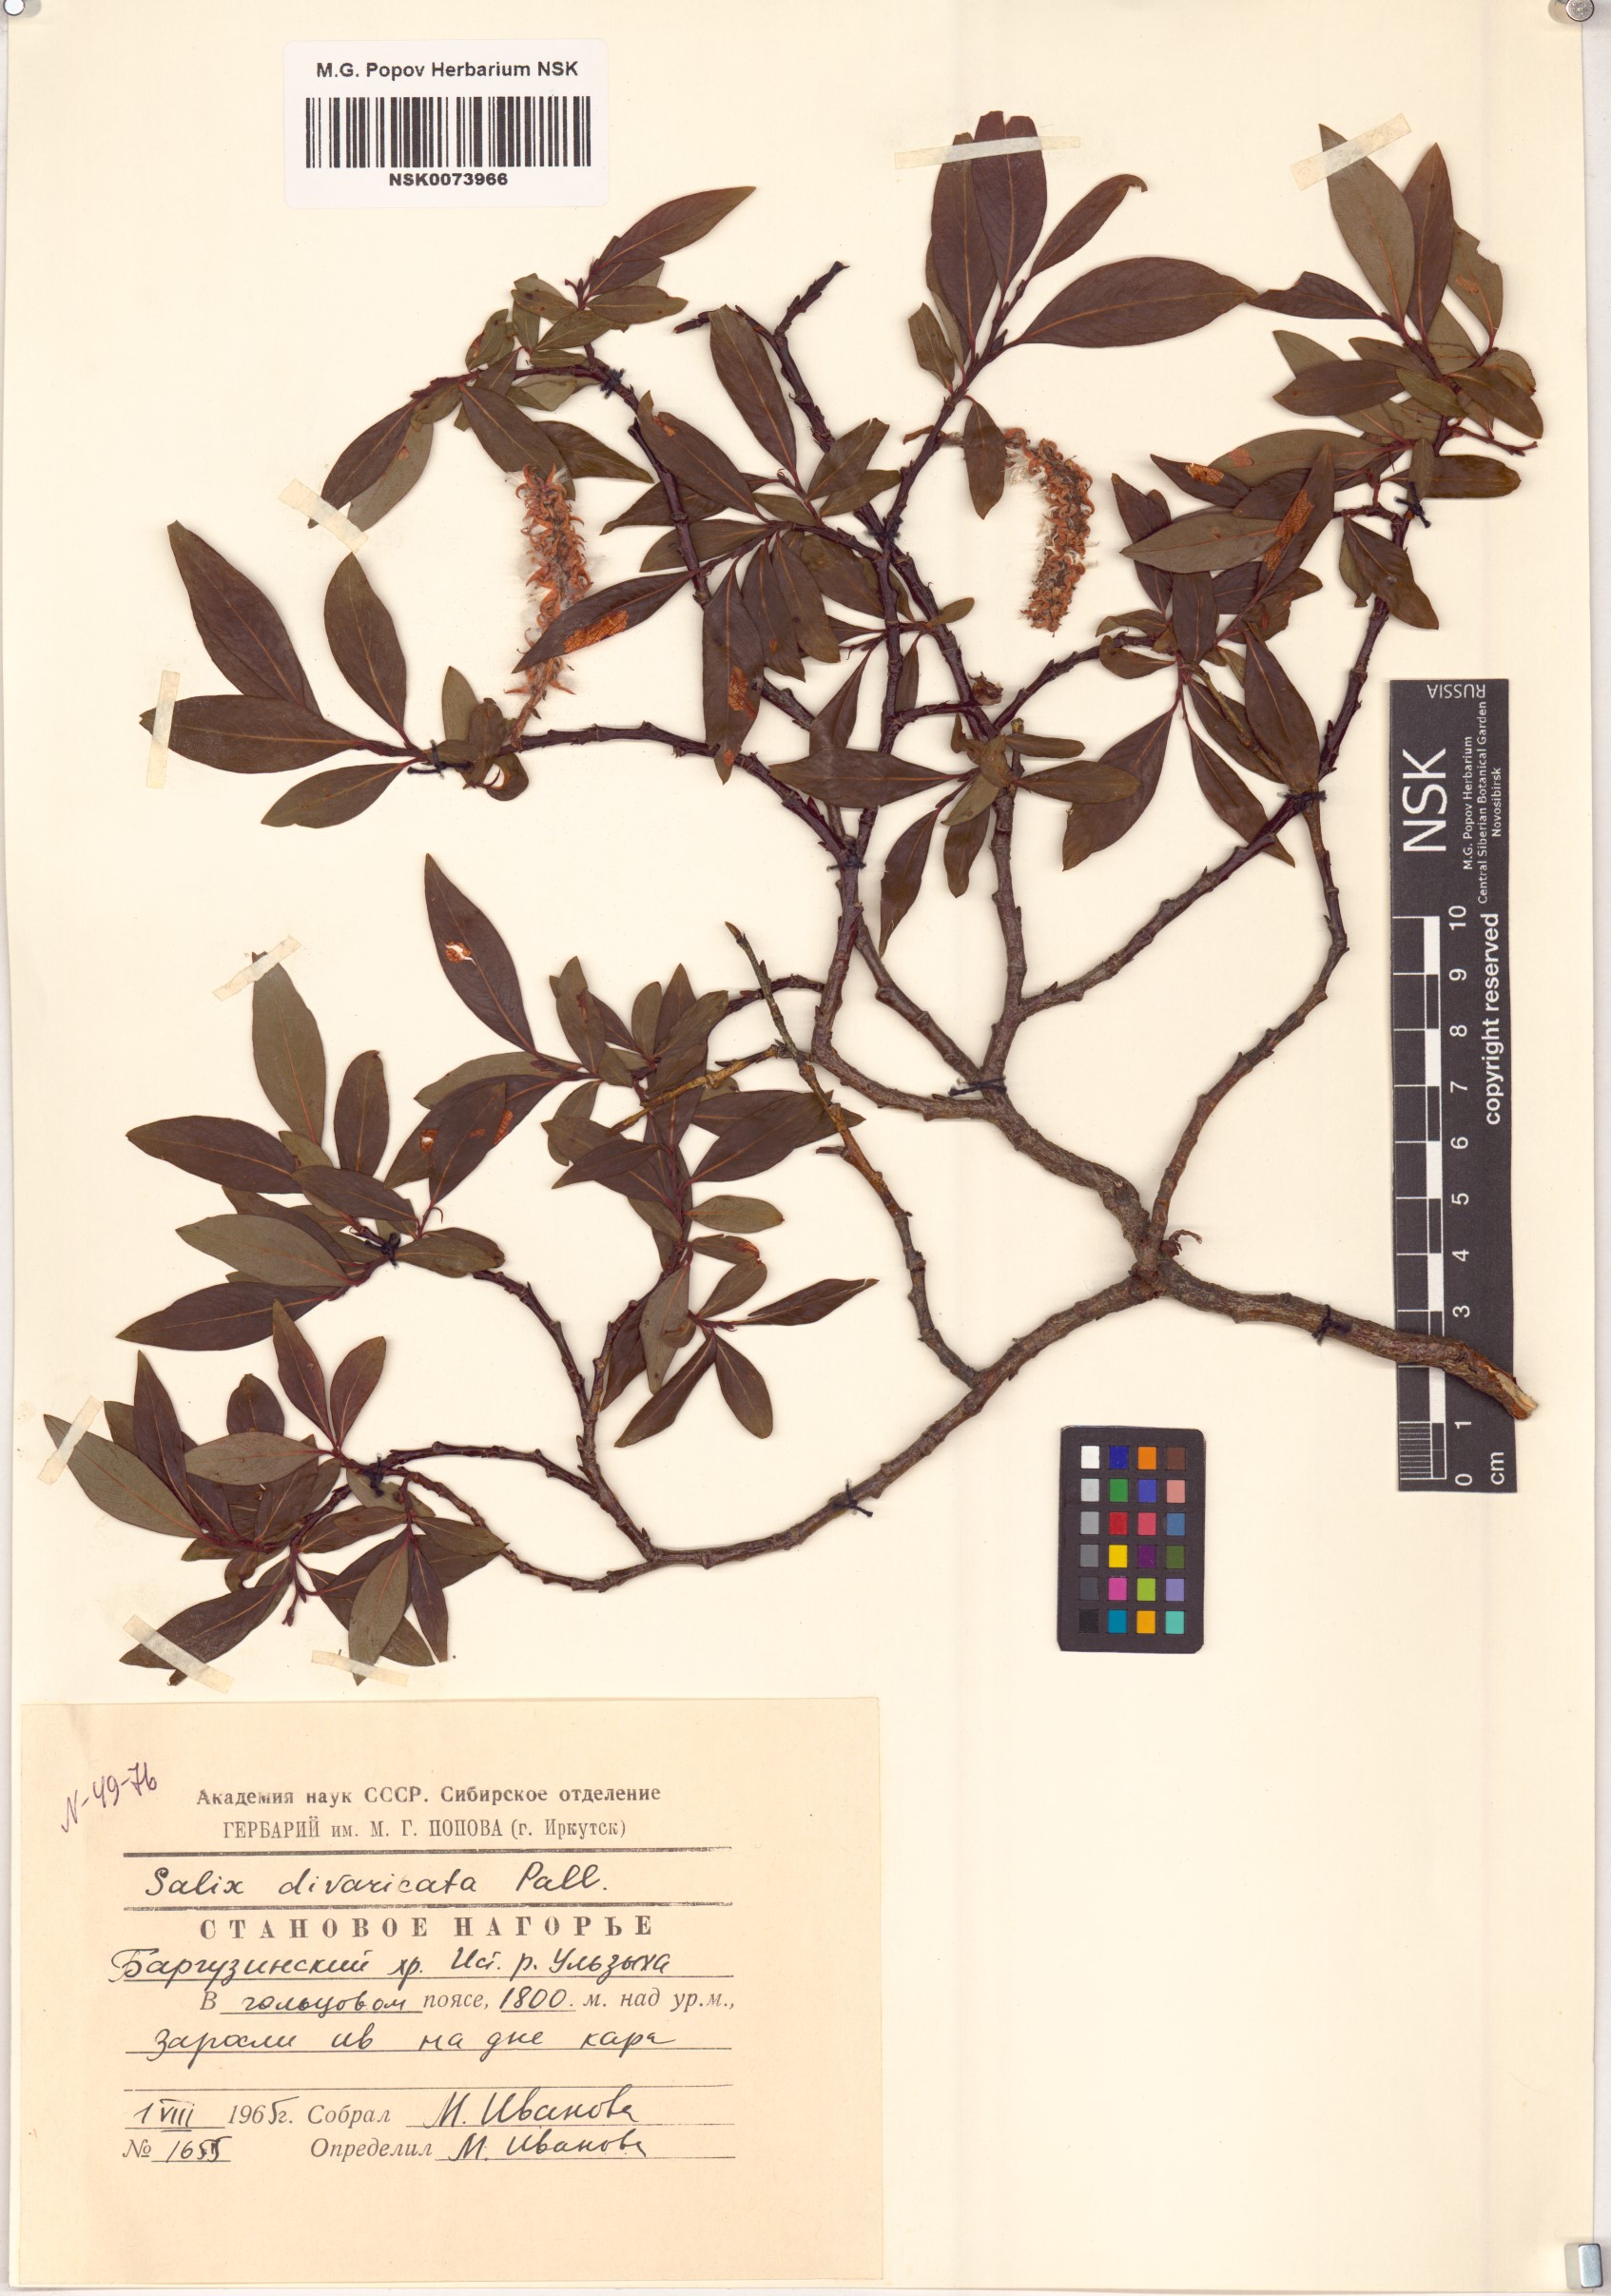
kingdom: Plantae
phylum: Tracheophyta
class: Magnoliopsida
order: Malpighiales
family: Salicaceae
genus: Salix
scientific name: Salix divaricata
